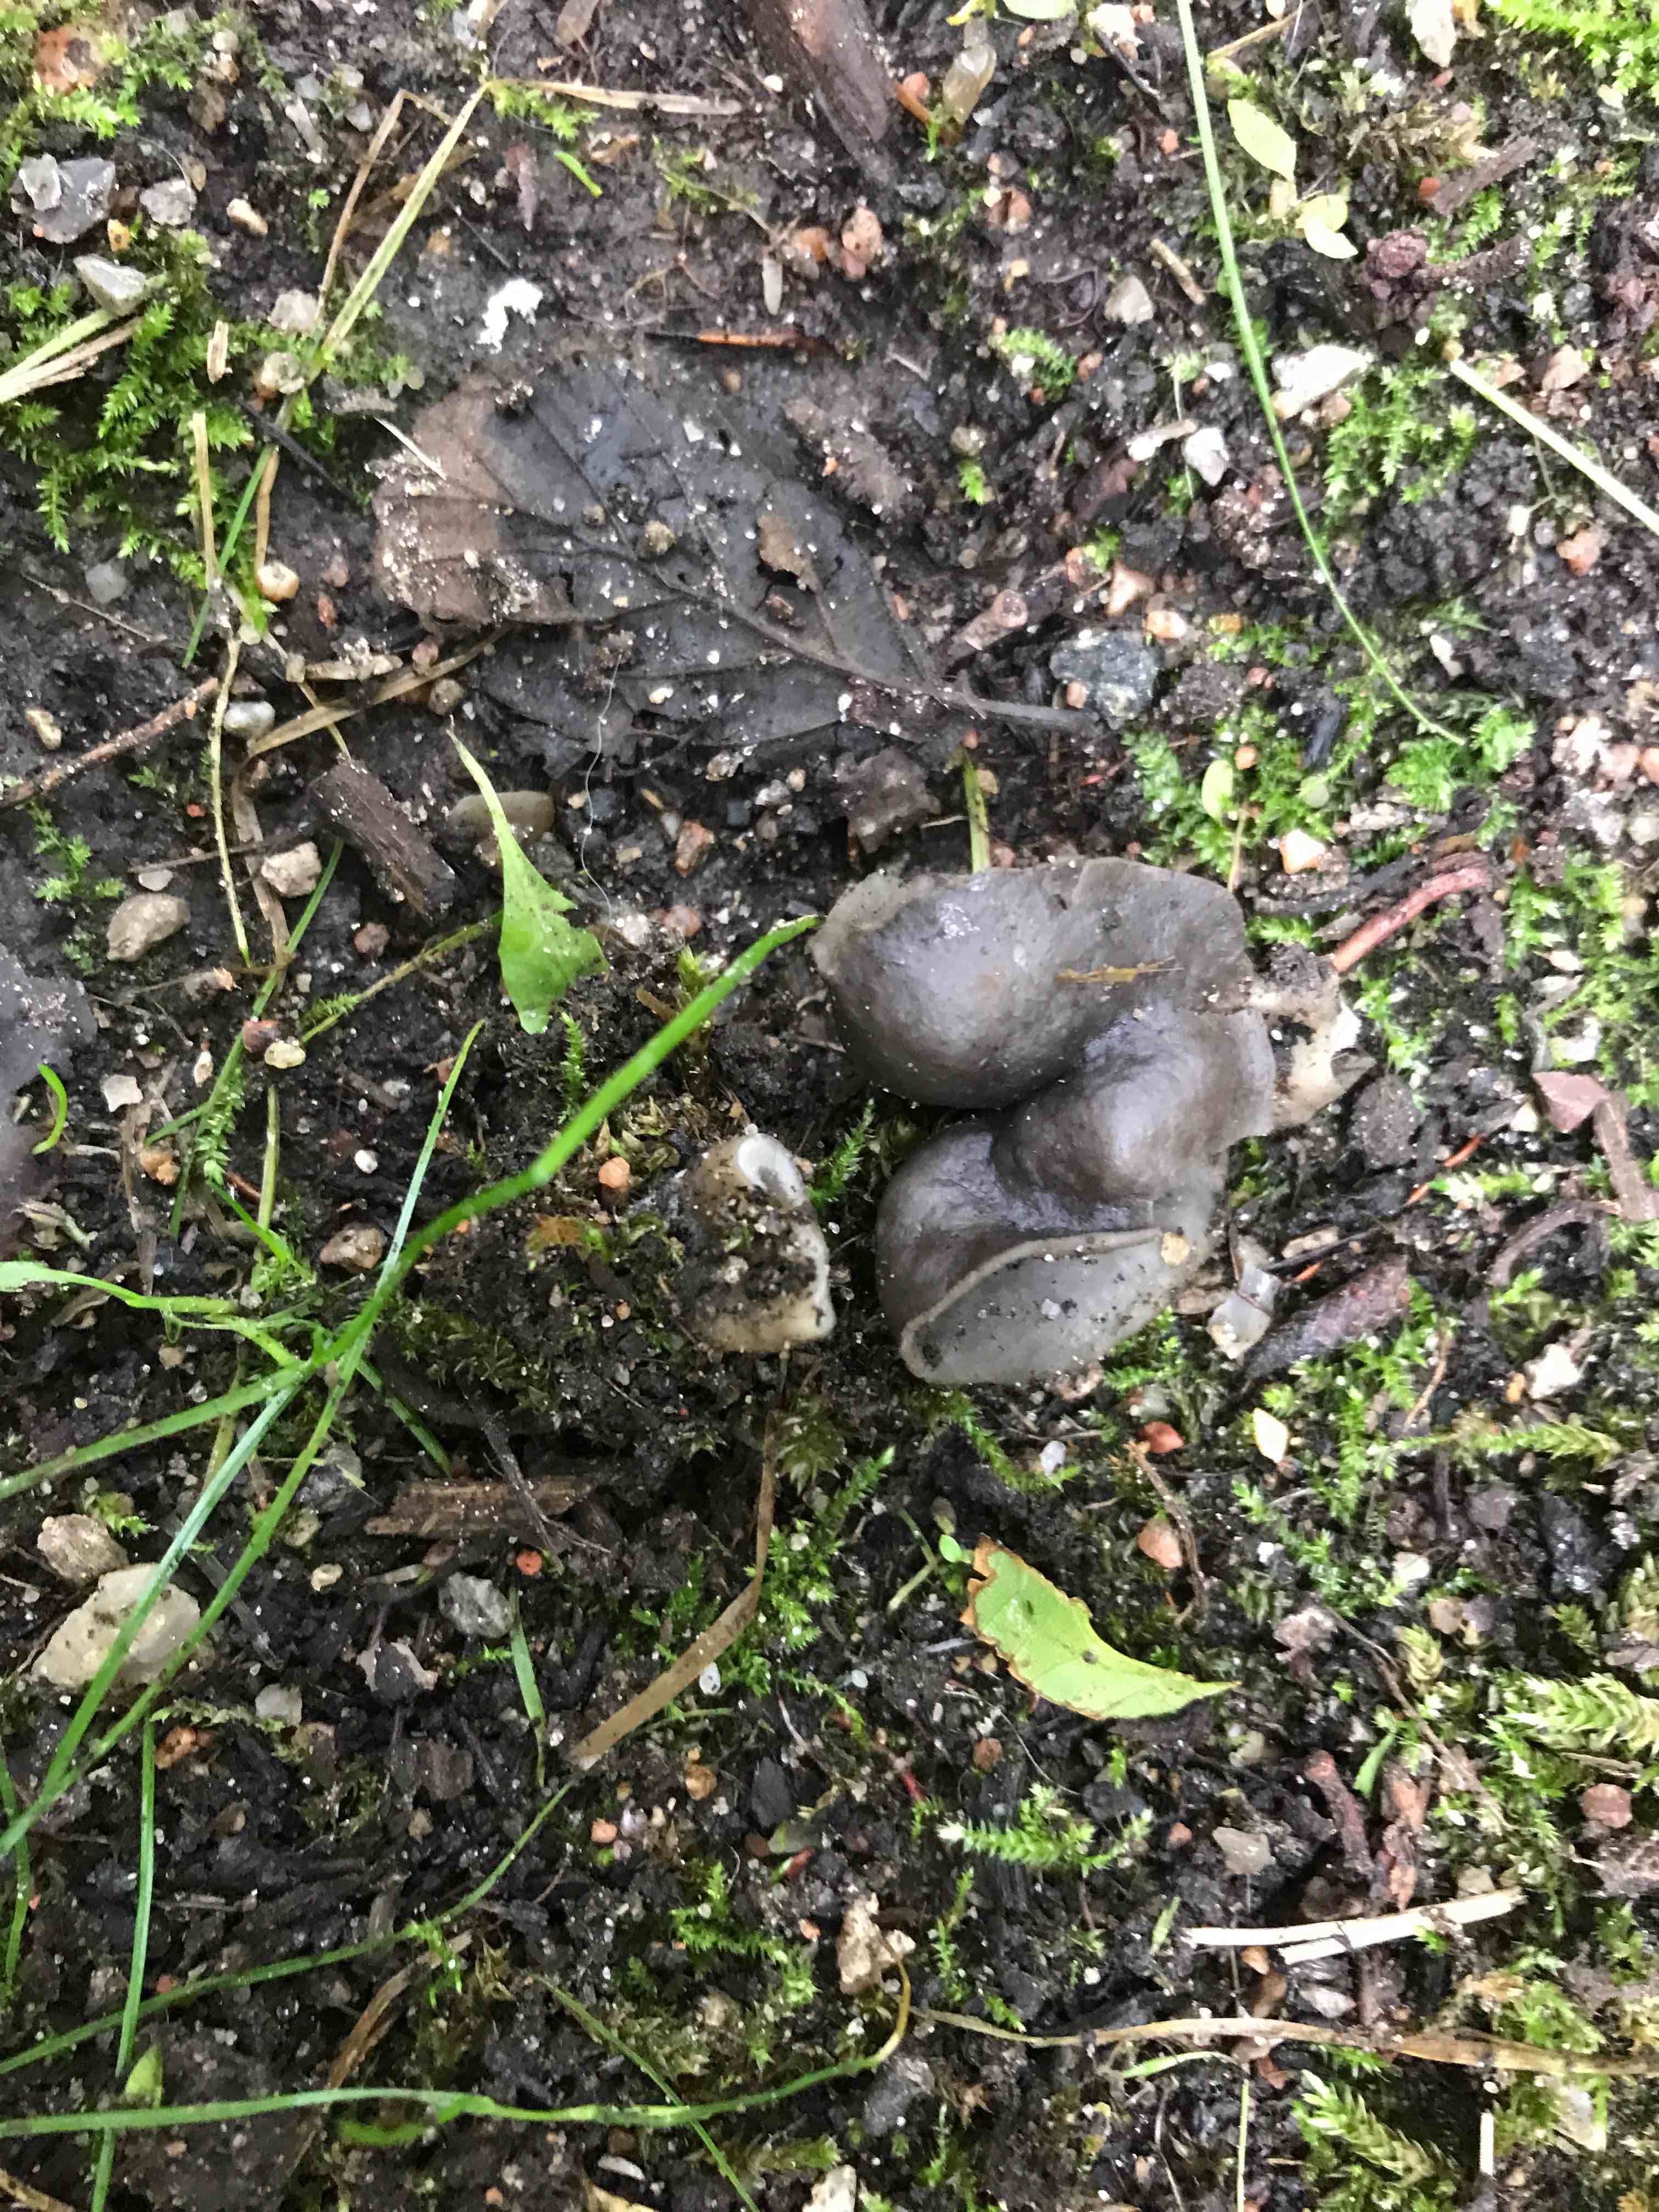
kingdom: Fungi
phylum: Ascomycota
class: Pezizomycetes
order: Pezizales
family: Helvellaceae
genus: Helvella
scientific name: Helvella lacunosa
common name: grubet foldhat
